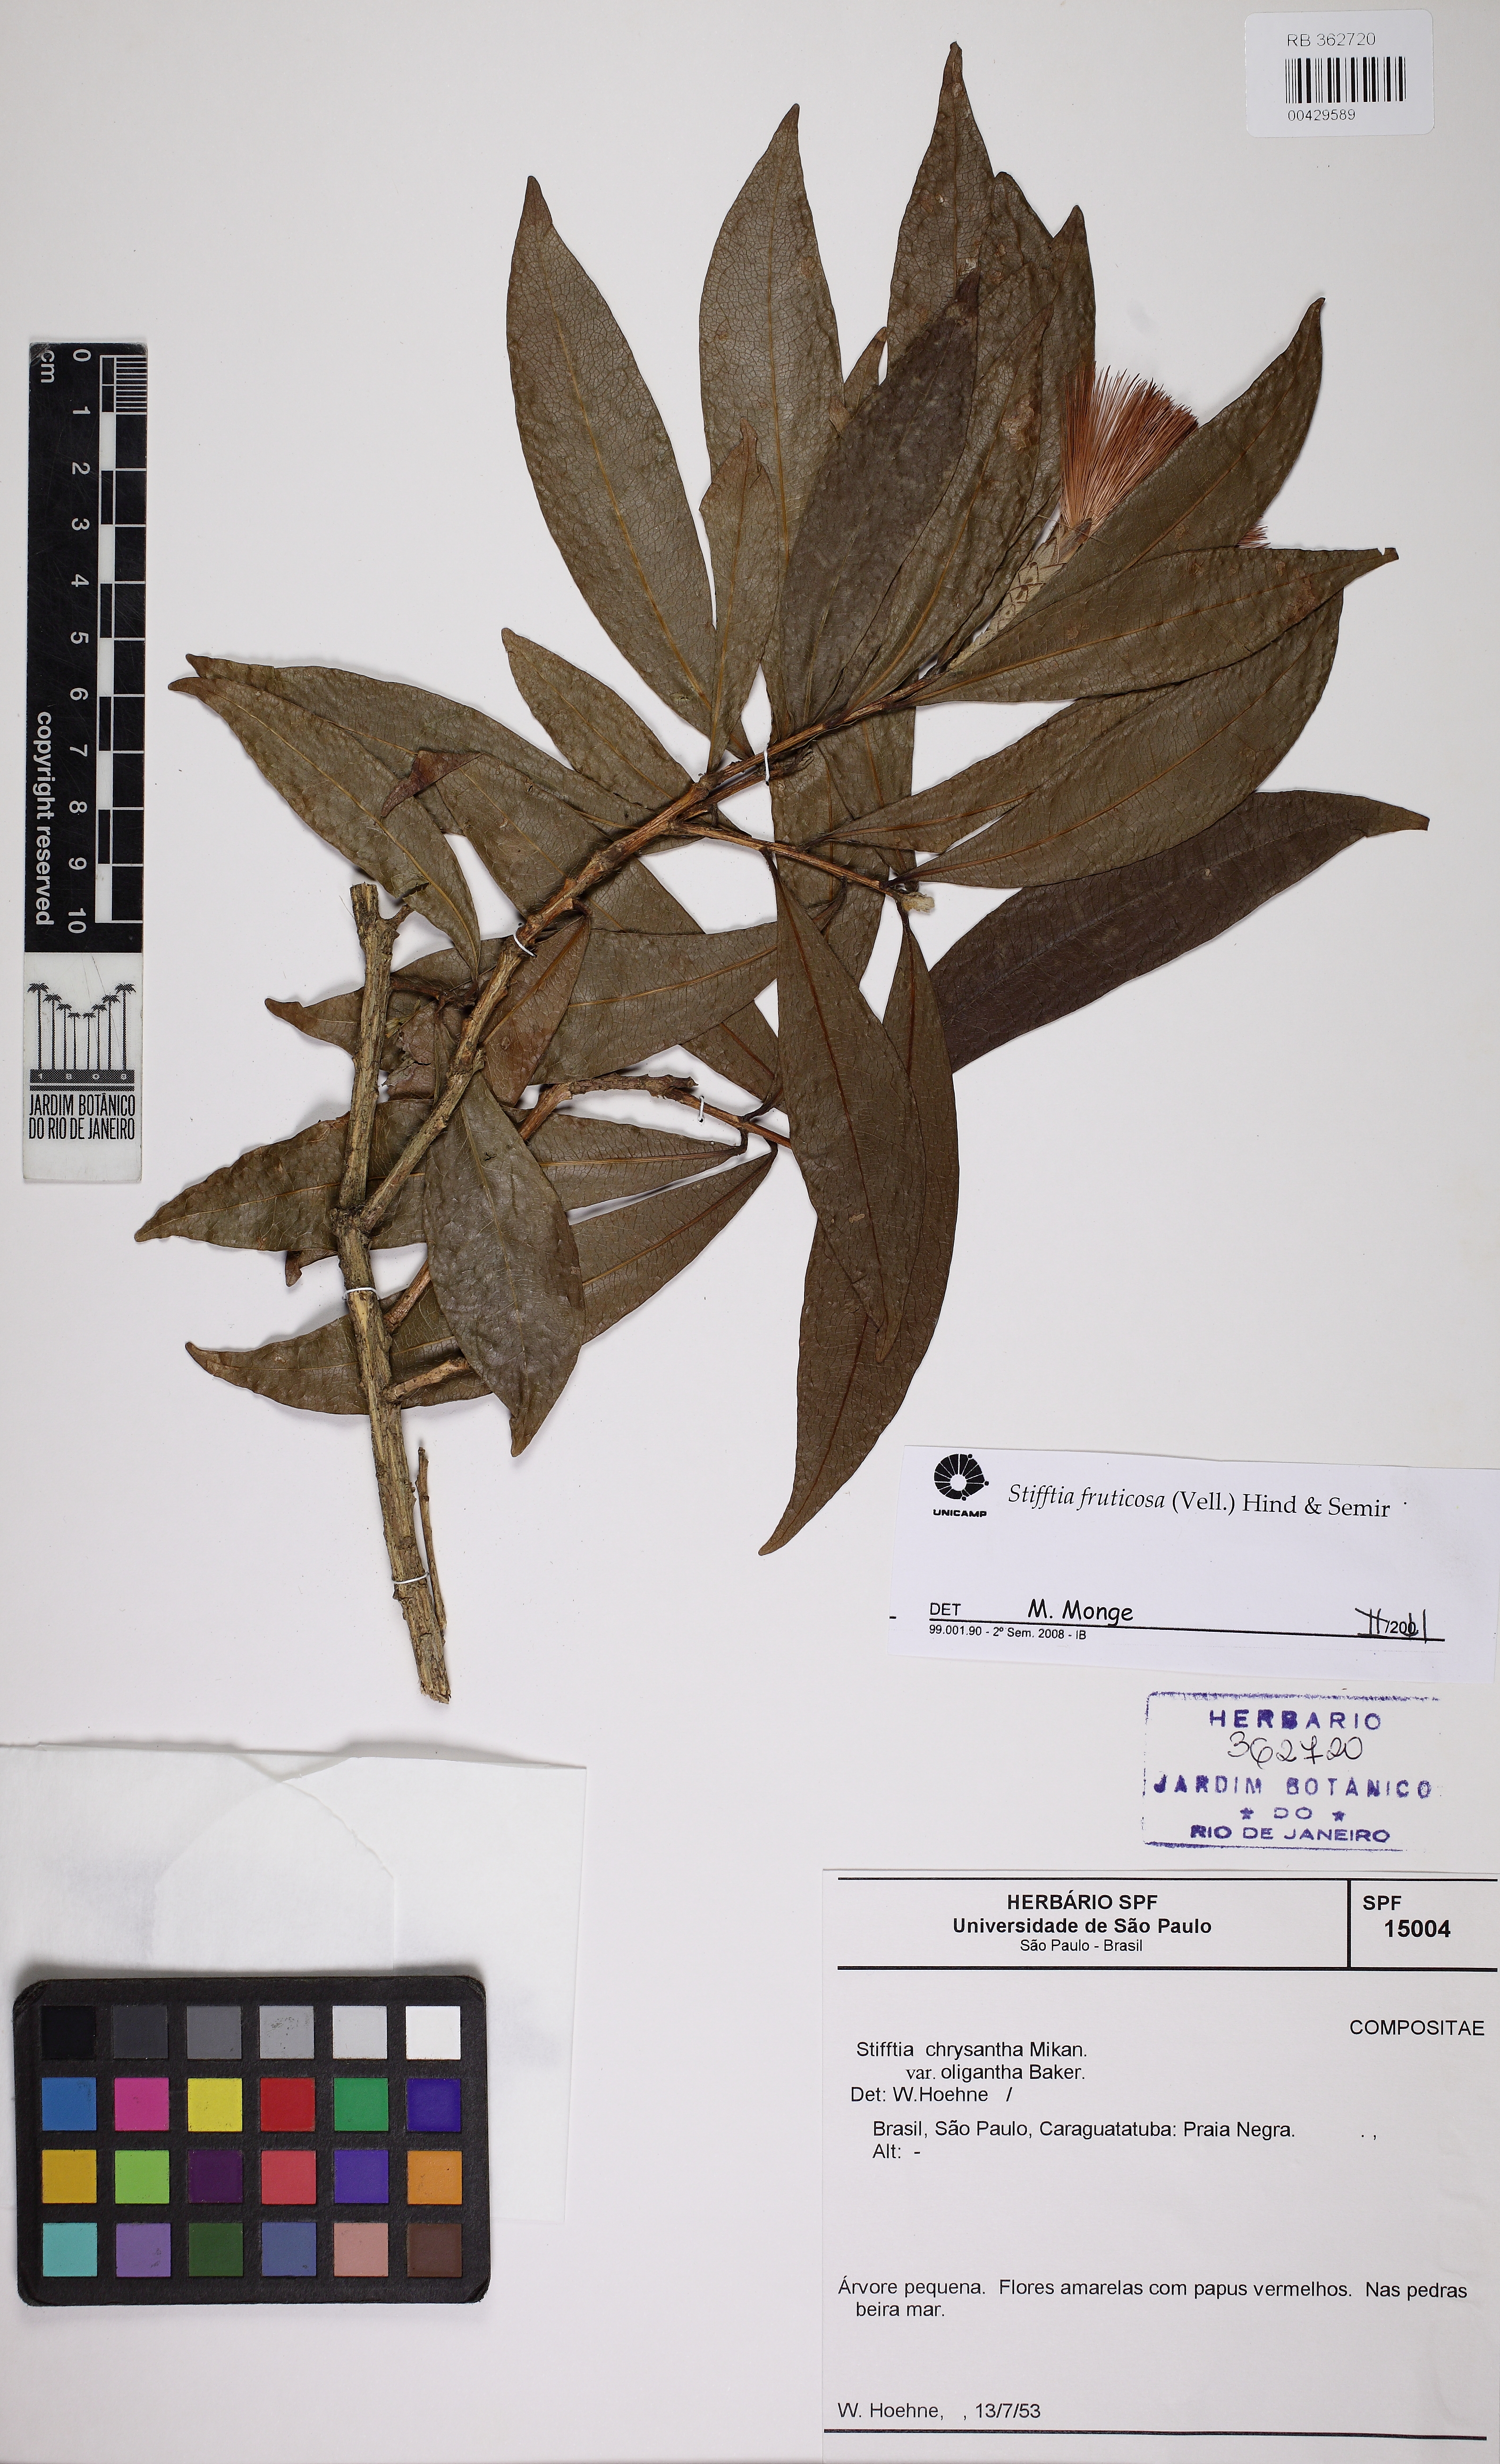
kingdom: Plantae
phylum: Tracheophyta
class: Magnoliopsida
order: Asterales
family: Asteraceae
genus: Stifftia
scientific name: Stifftia fruticosa
